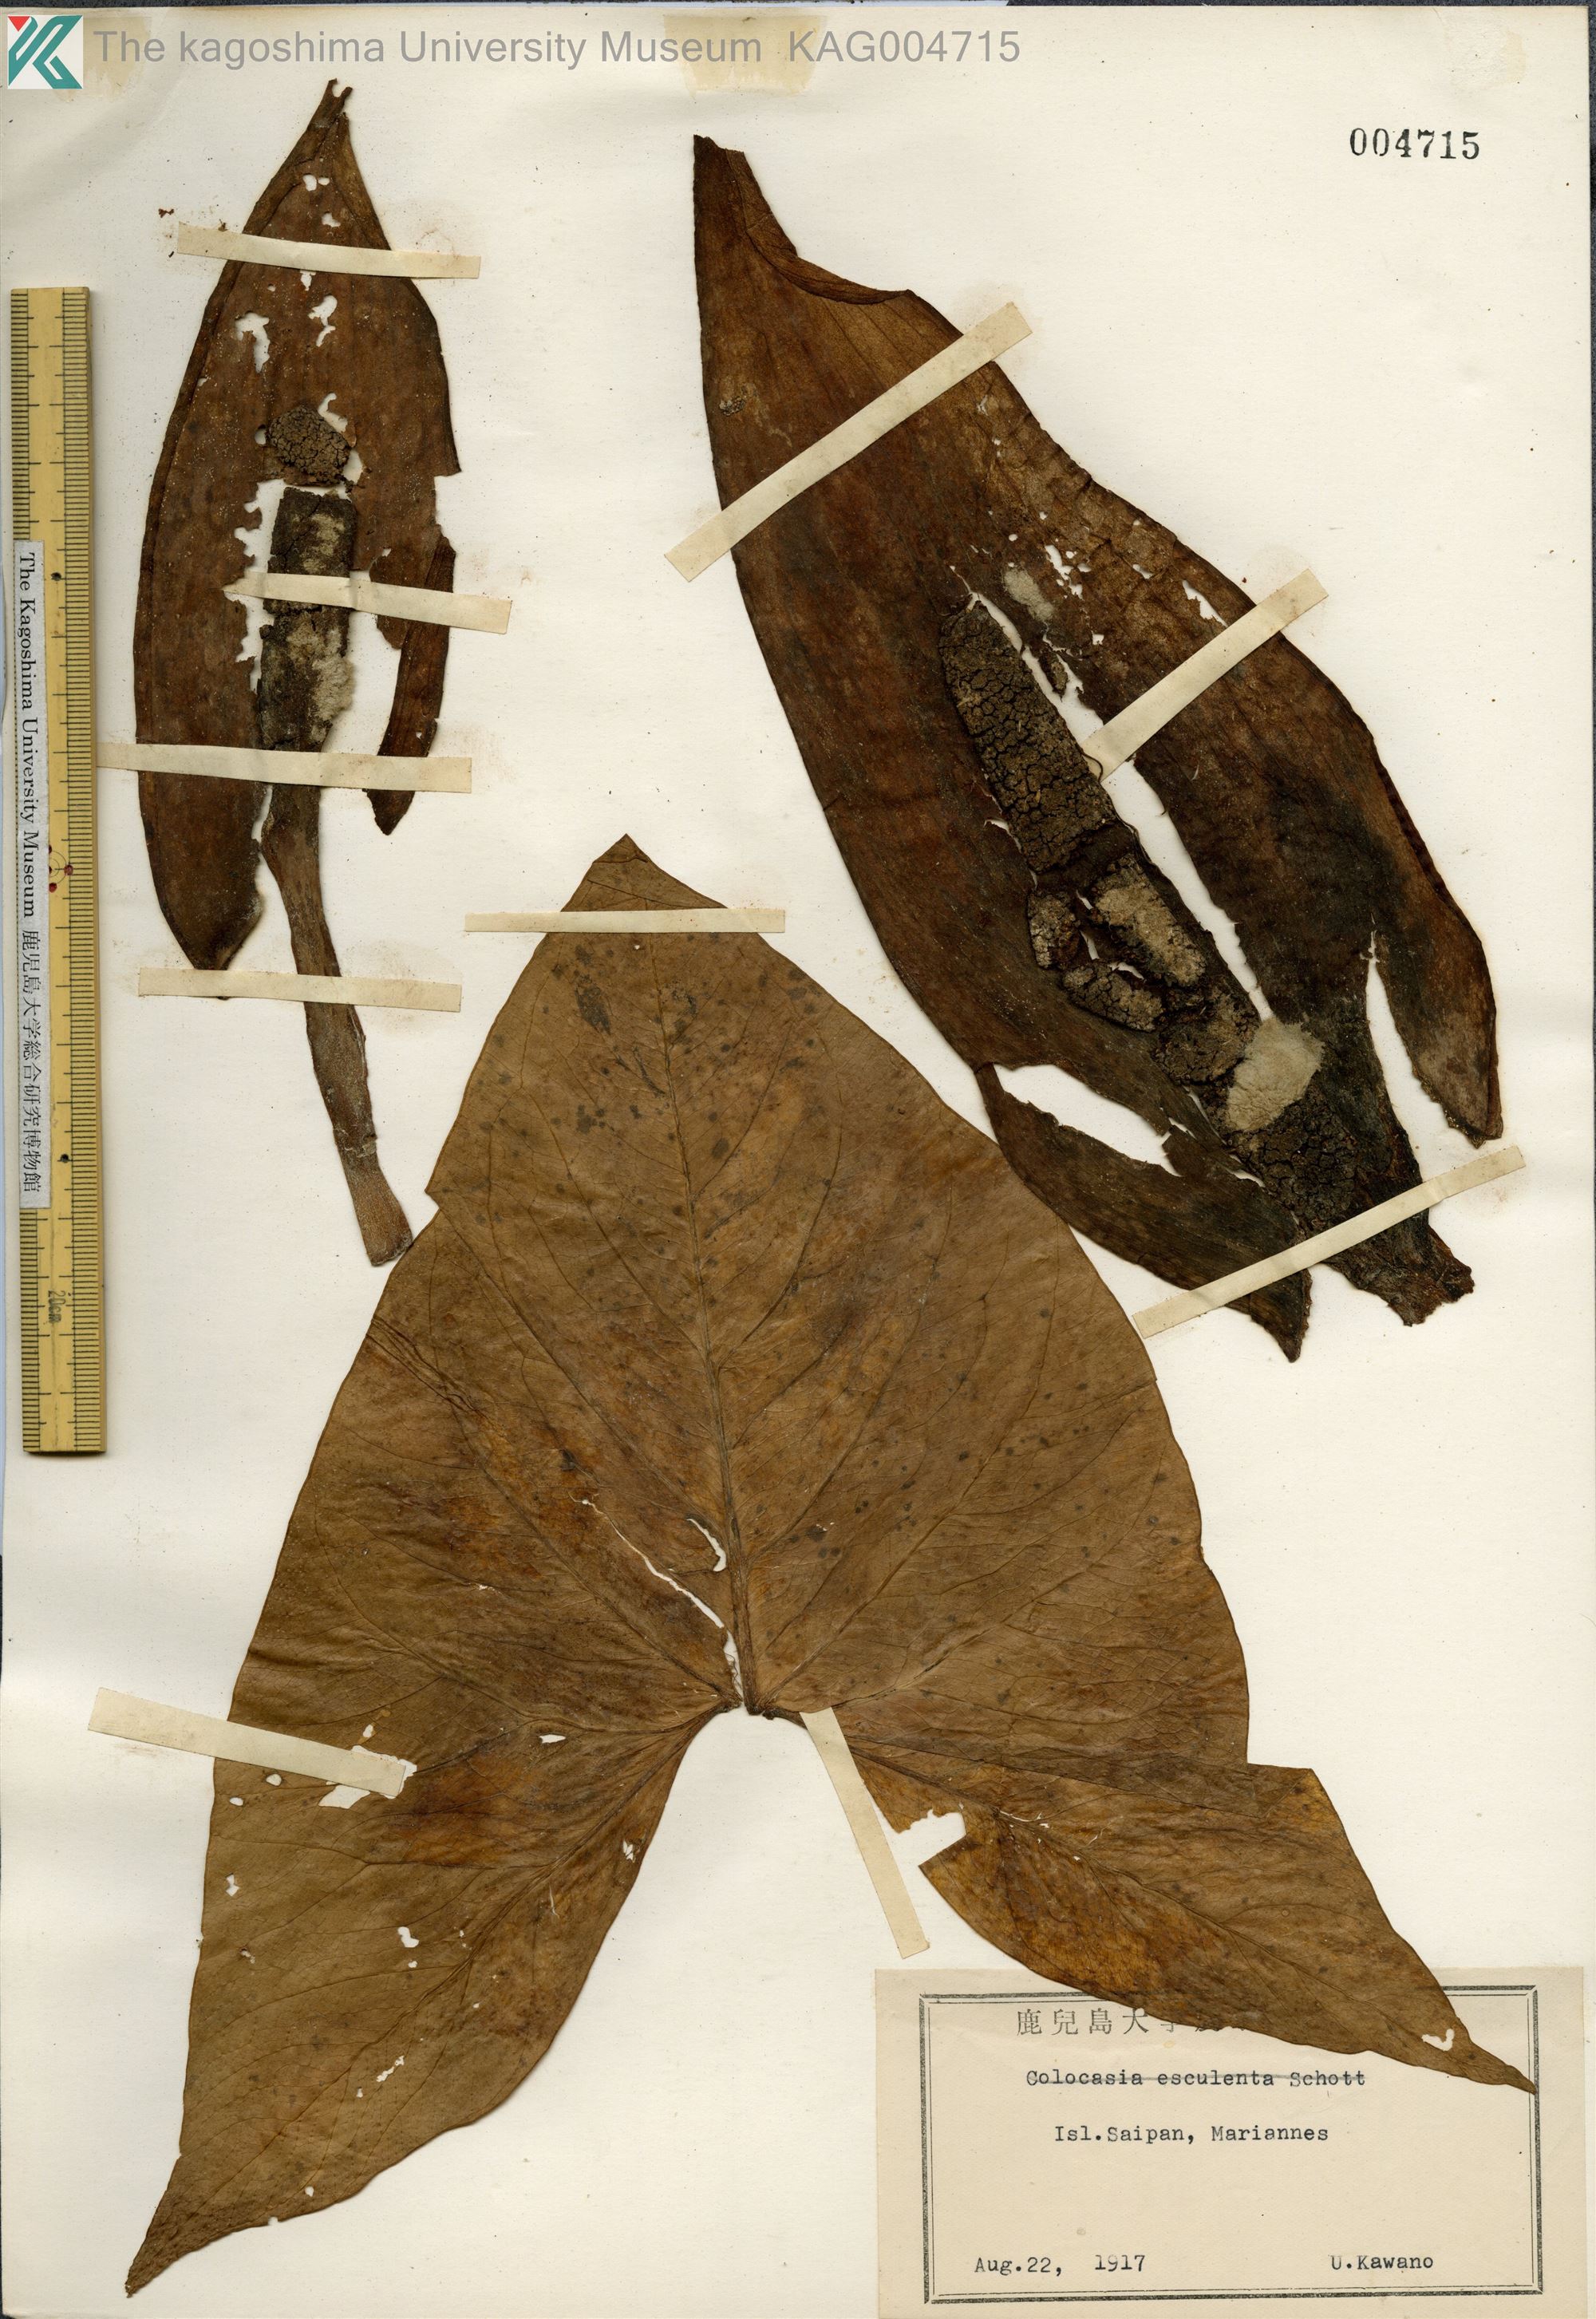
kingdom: Plantae
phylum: Tracheophyta
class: Liliopsida
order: Alismatales
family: Araceae
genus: Xanthosoma
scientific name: Xanthosoma sagittifolium
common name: Arrowleaf elephant's ear
